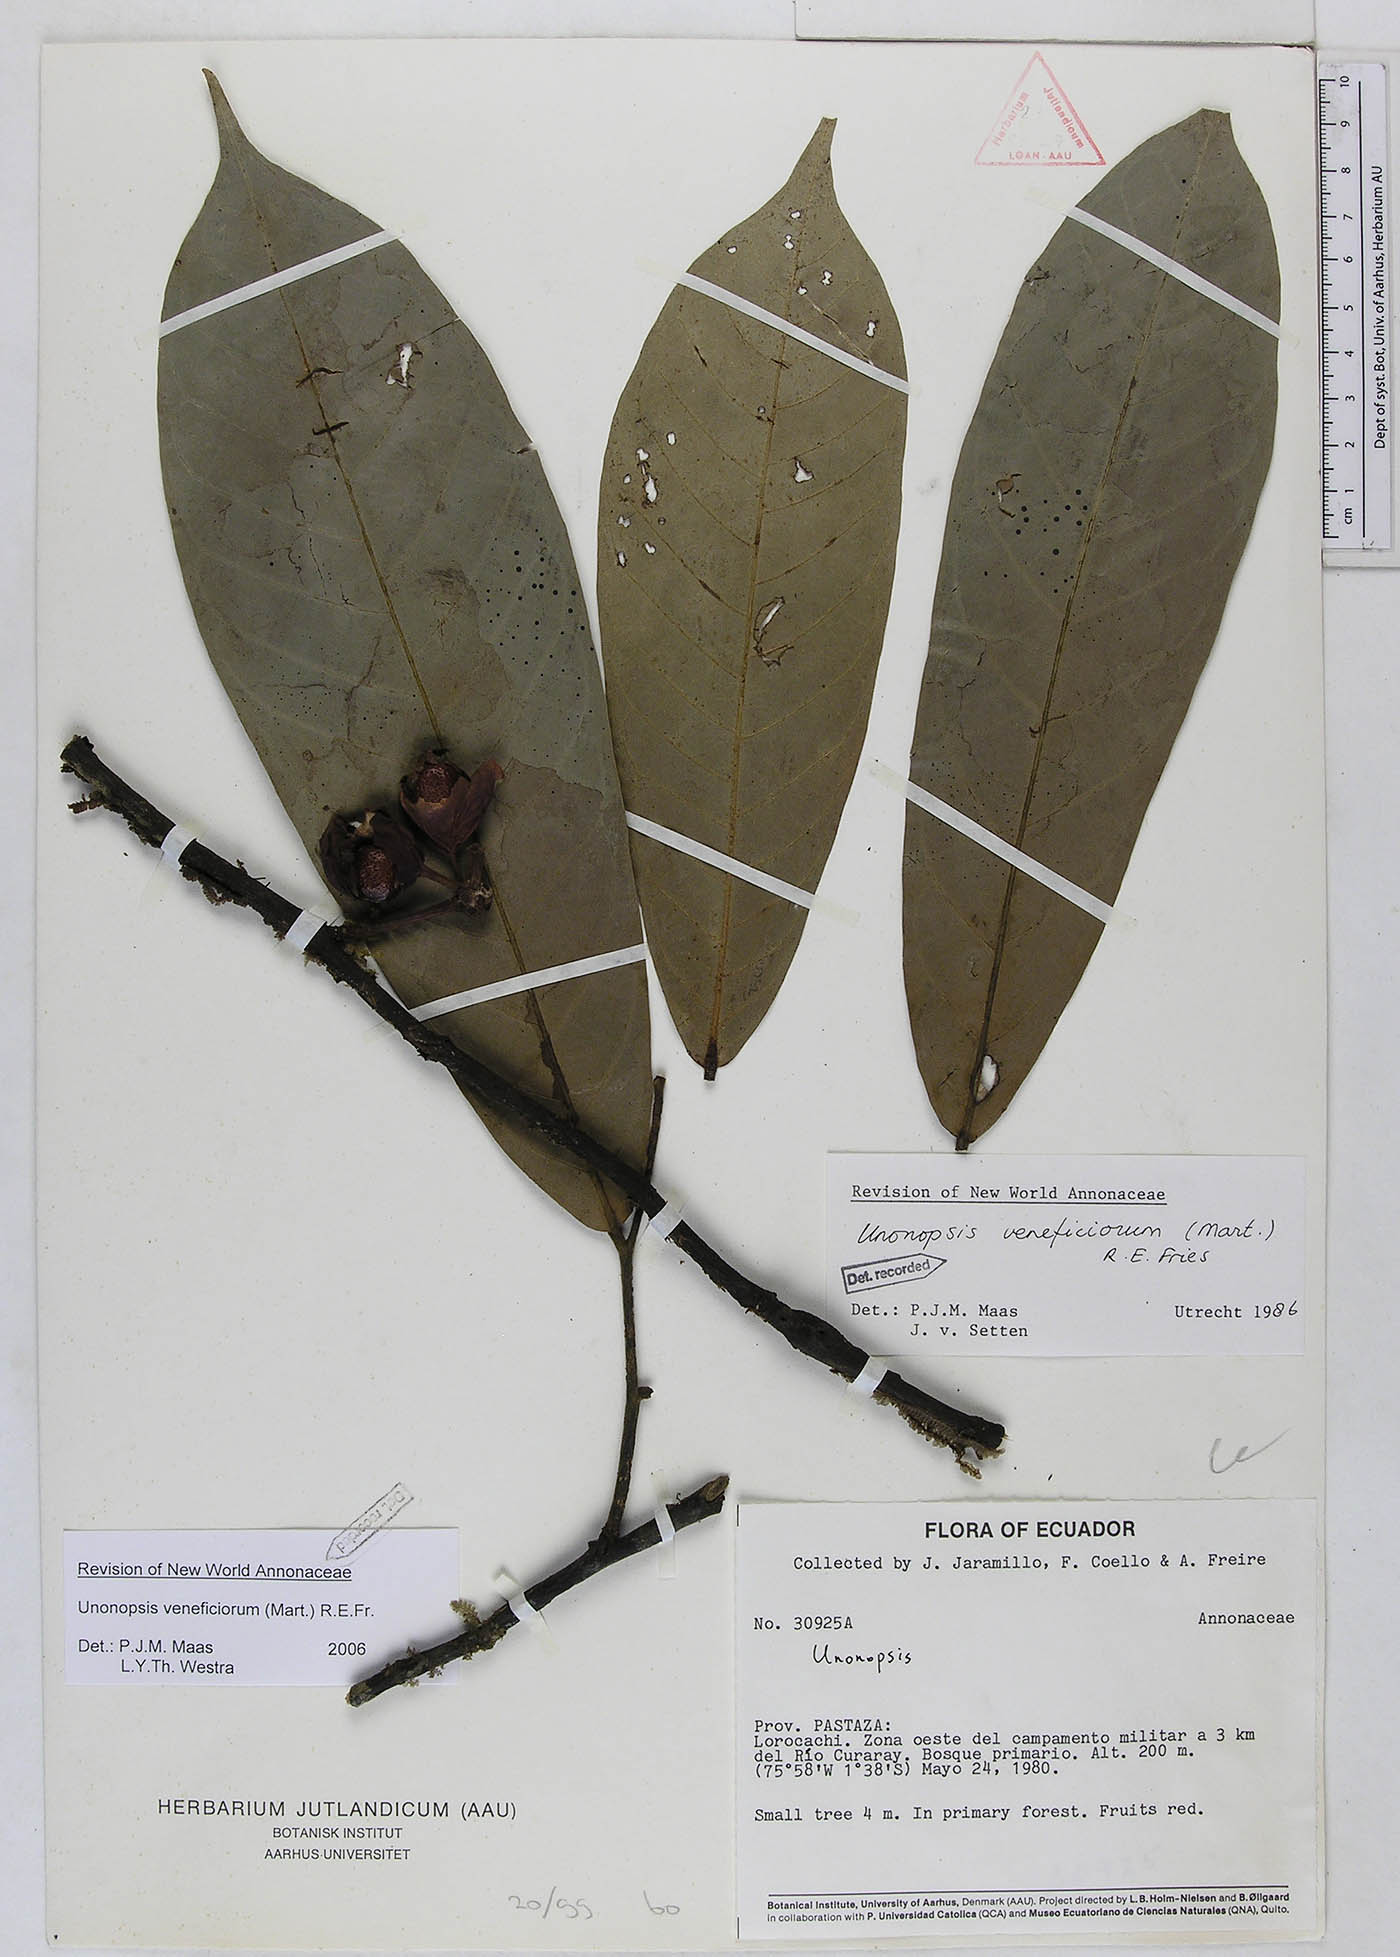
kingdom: Plantae
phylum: Tracheophyta
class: Magnoliopsida
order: Magnoliales
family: Annonaceae
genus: Unonopsis
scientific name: Unonopsis veneficiorum
